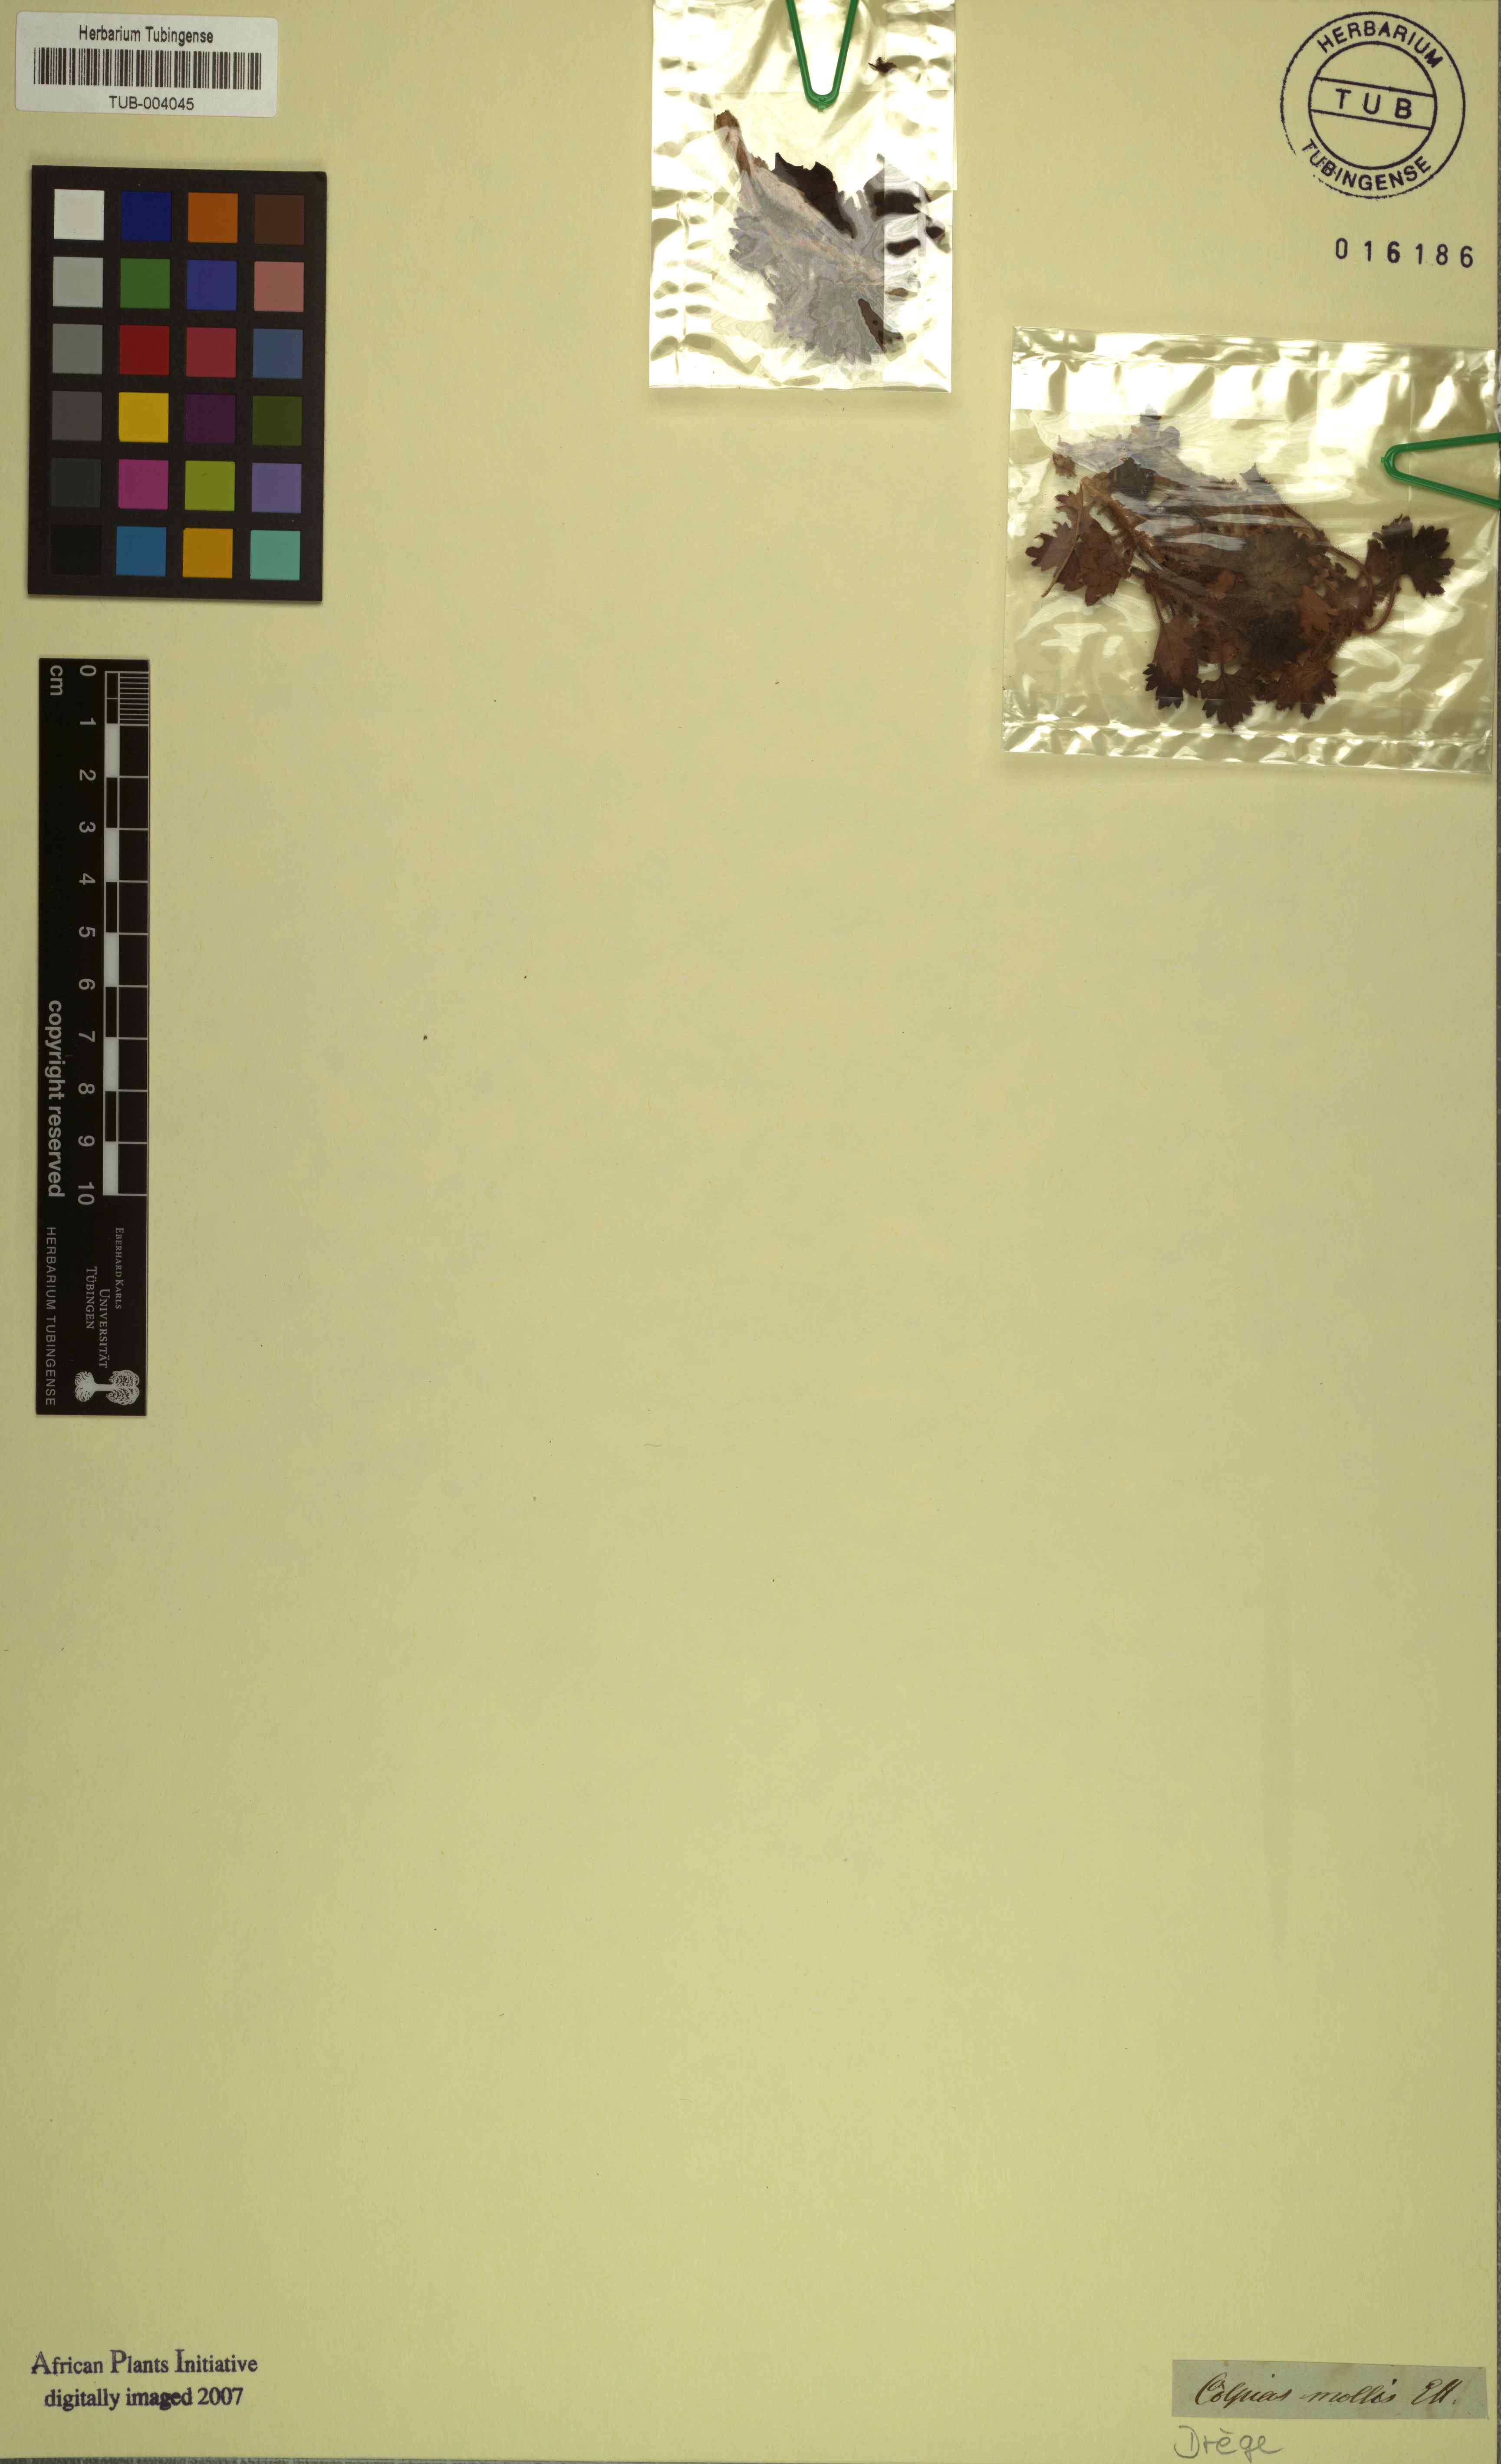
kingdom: Plantae
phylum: Tracheophyta
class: Magnoliopsida
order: Lamiales
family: Scrophulariaceae
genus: Colpias
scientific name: Colpias mollis
